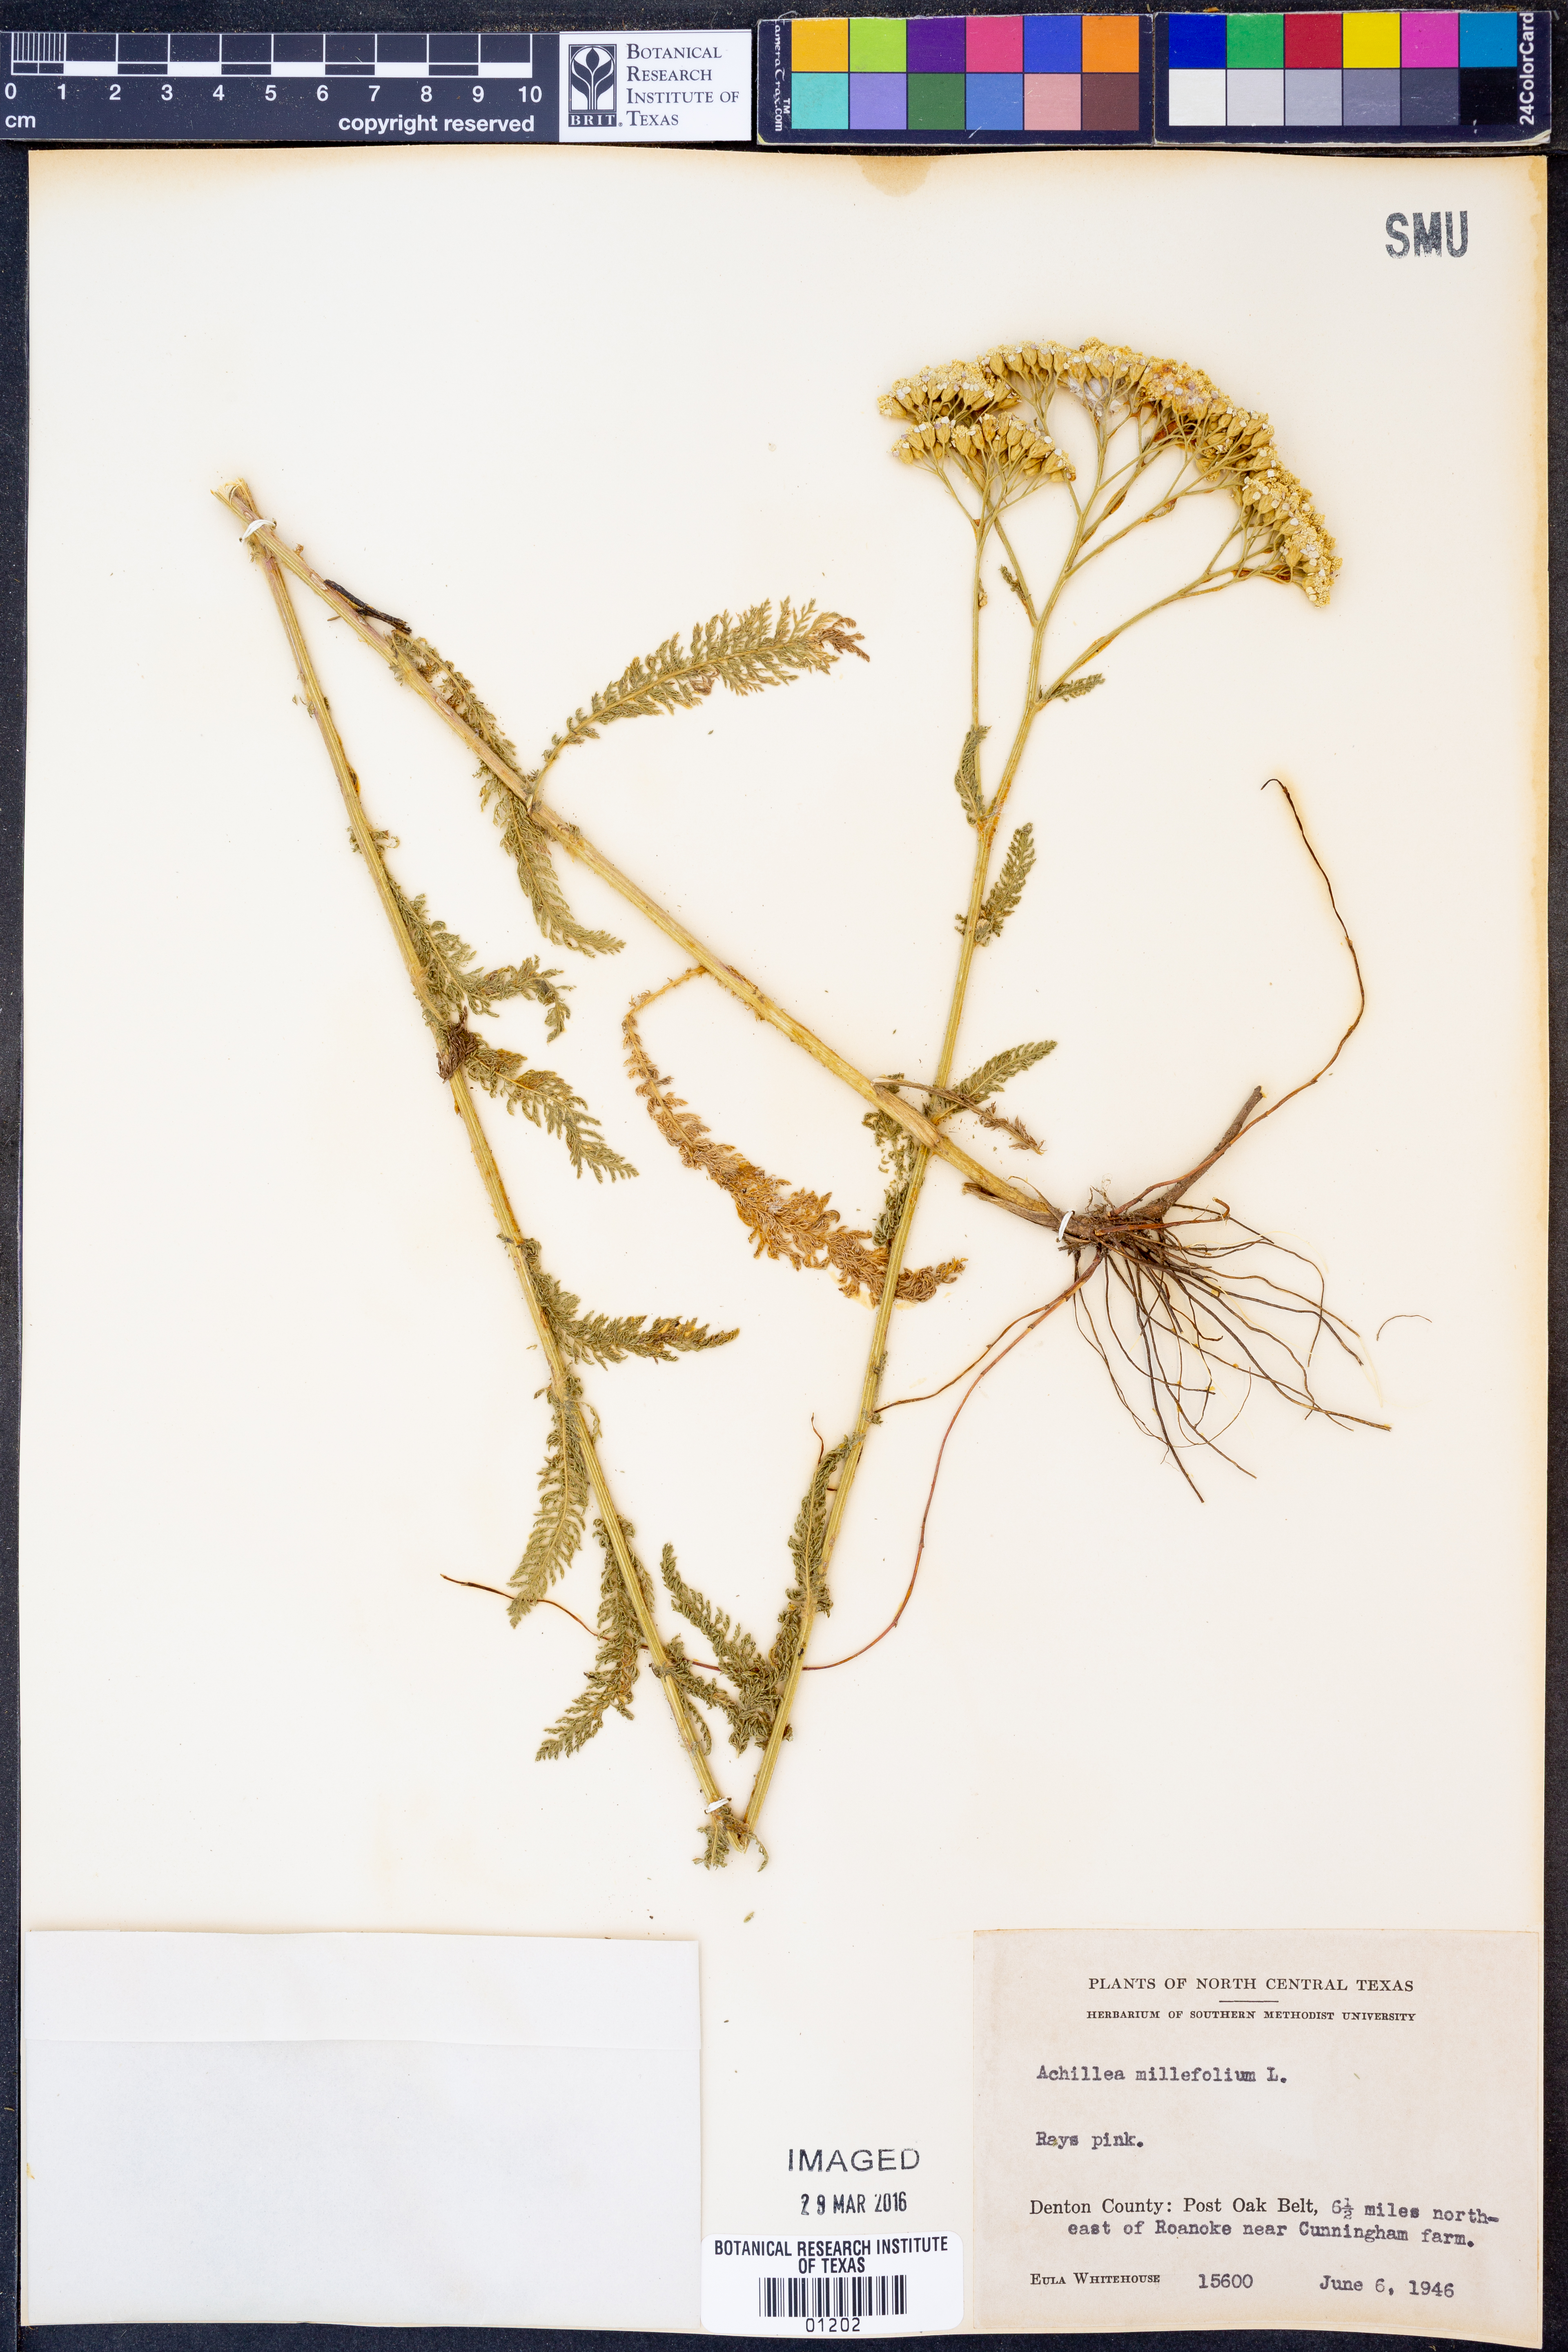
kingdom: Plantae
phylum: Tracheophyta
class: Magnoliopsida
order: Asterales
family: Asteraceae
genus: Achillea
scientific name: Achillea millefolium
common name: Yarrow
